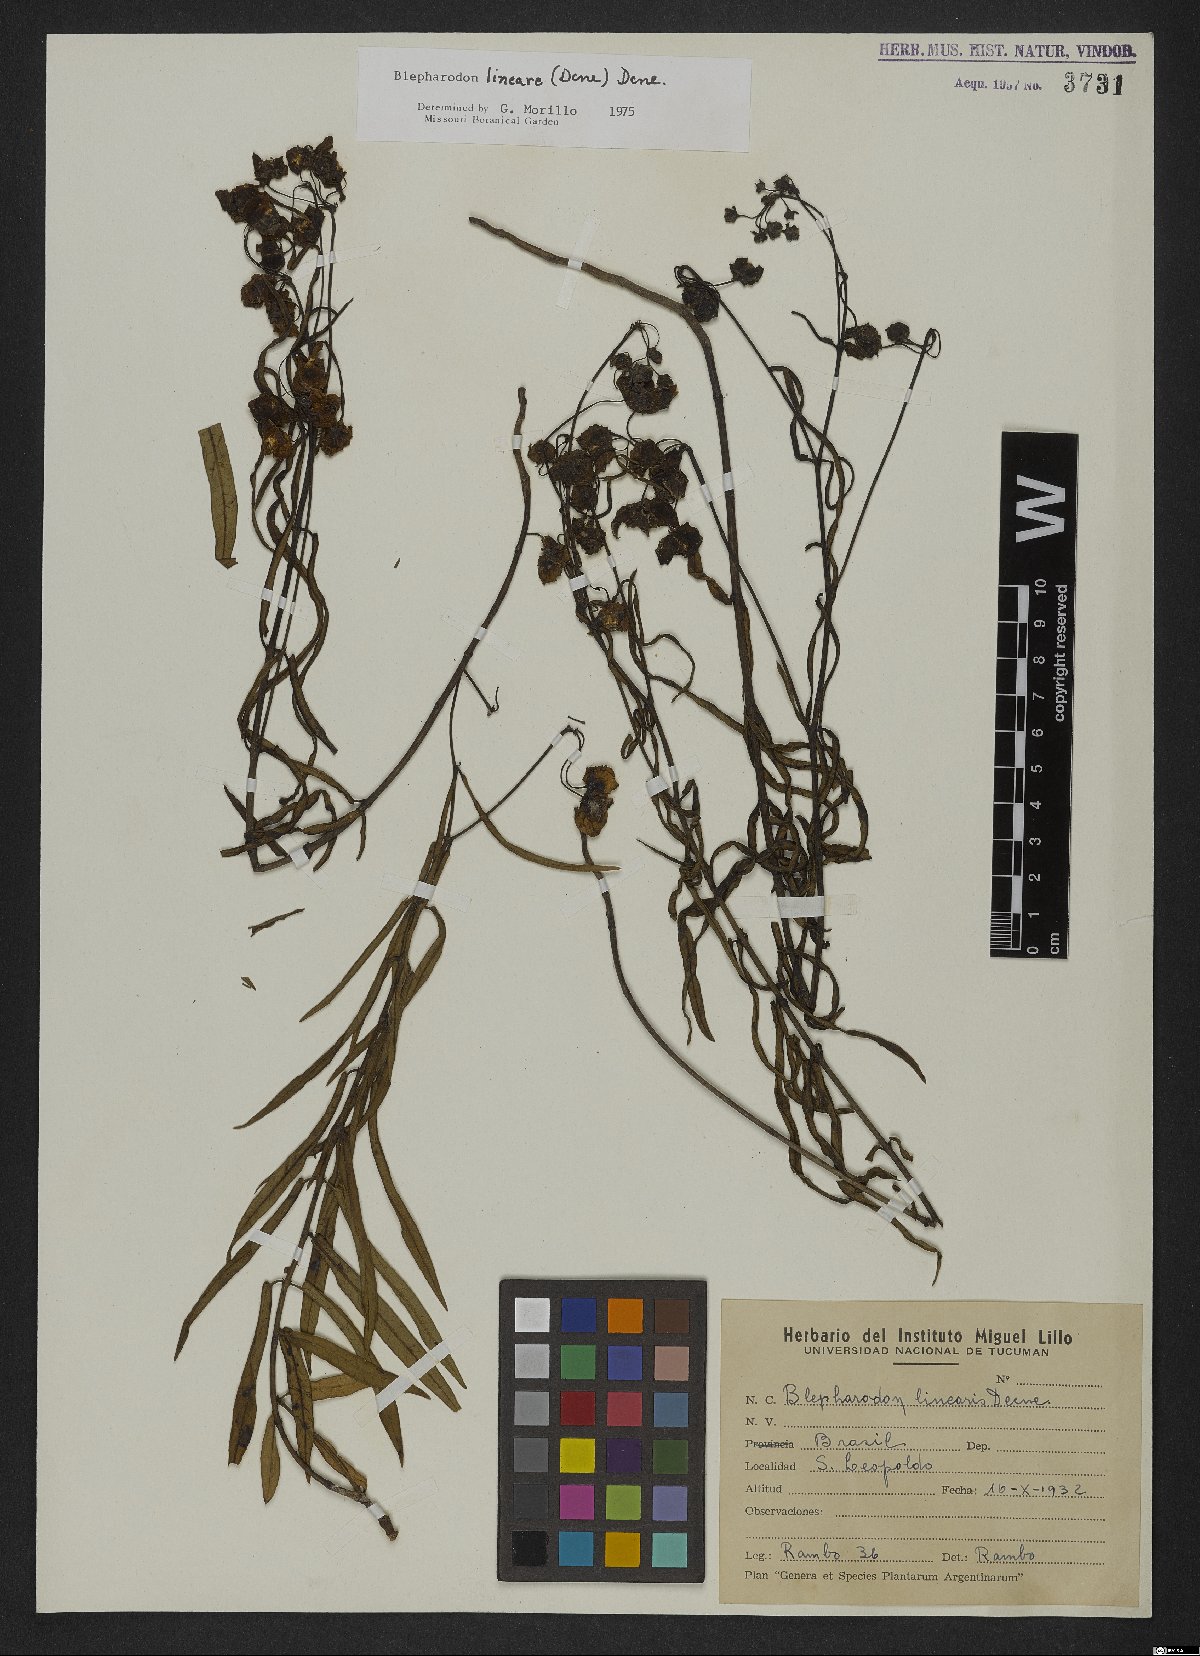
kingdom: Plantae
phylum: Tracheophyta
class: Magnoliopsida
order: Gentianales
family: Apocynaceae
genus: Blepharodon
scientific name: Blepharodon lineare
